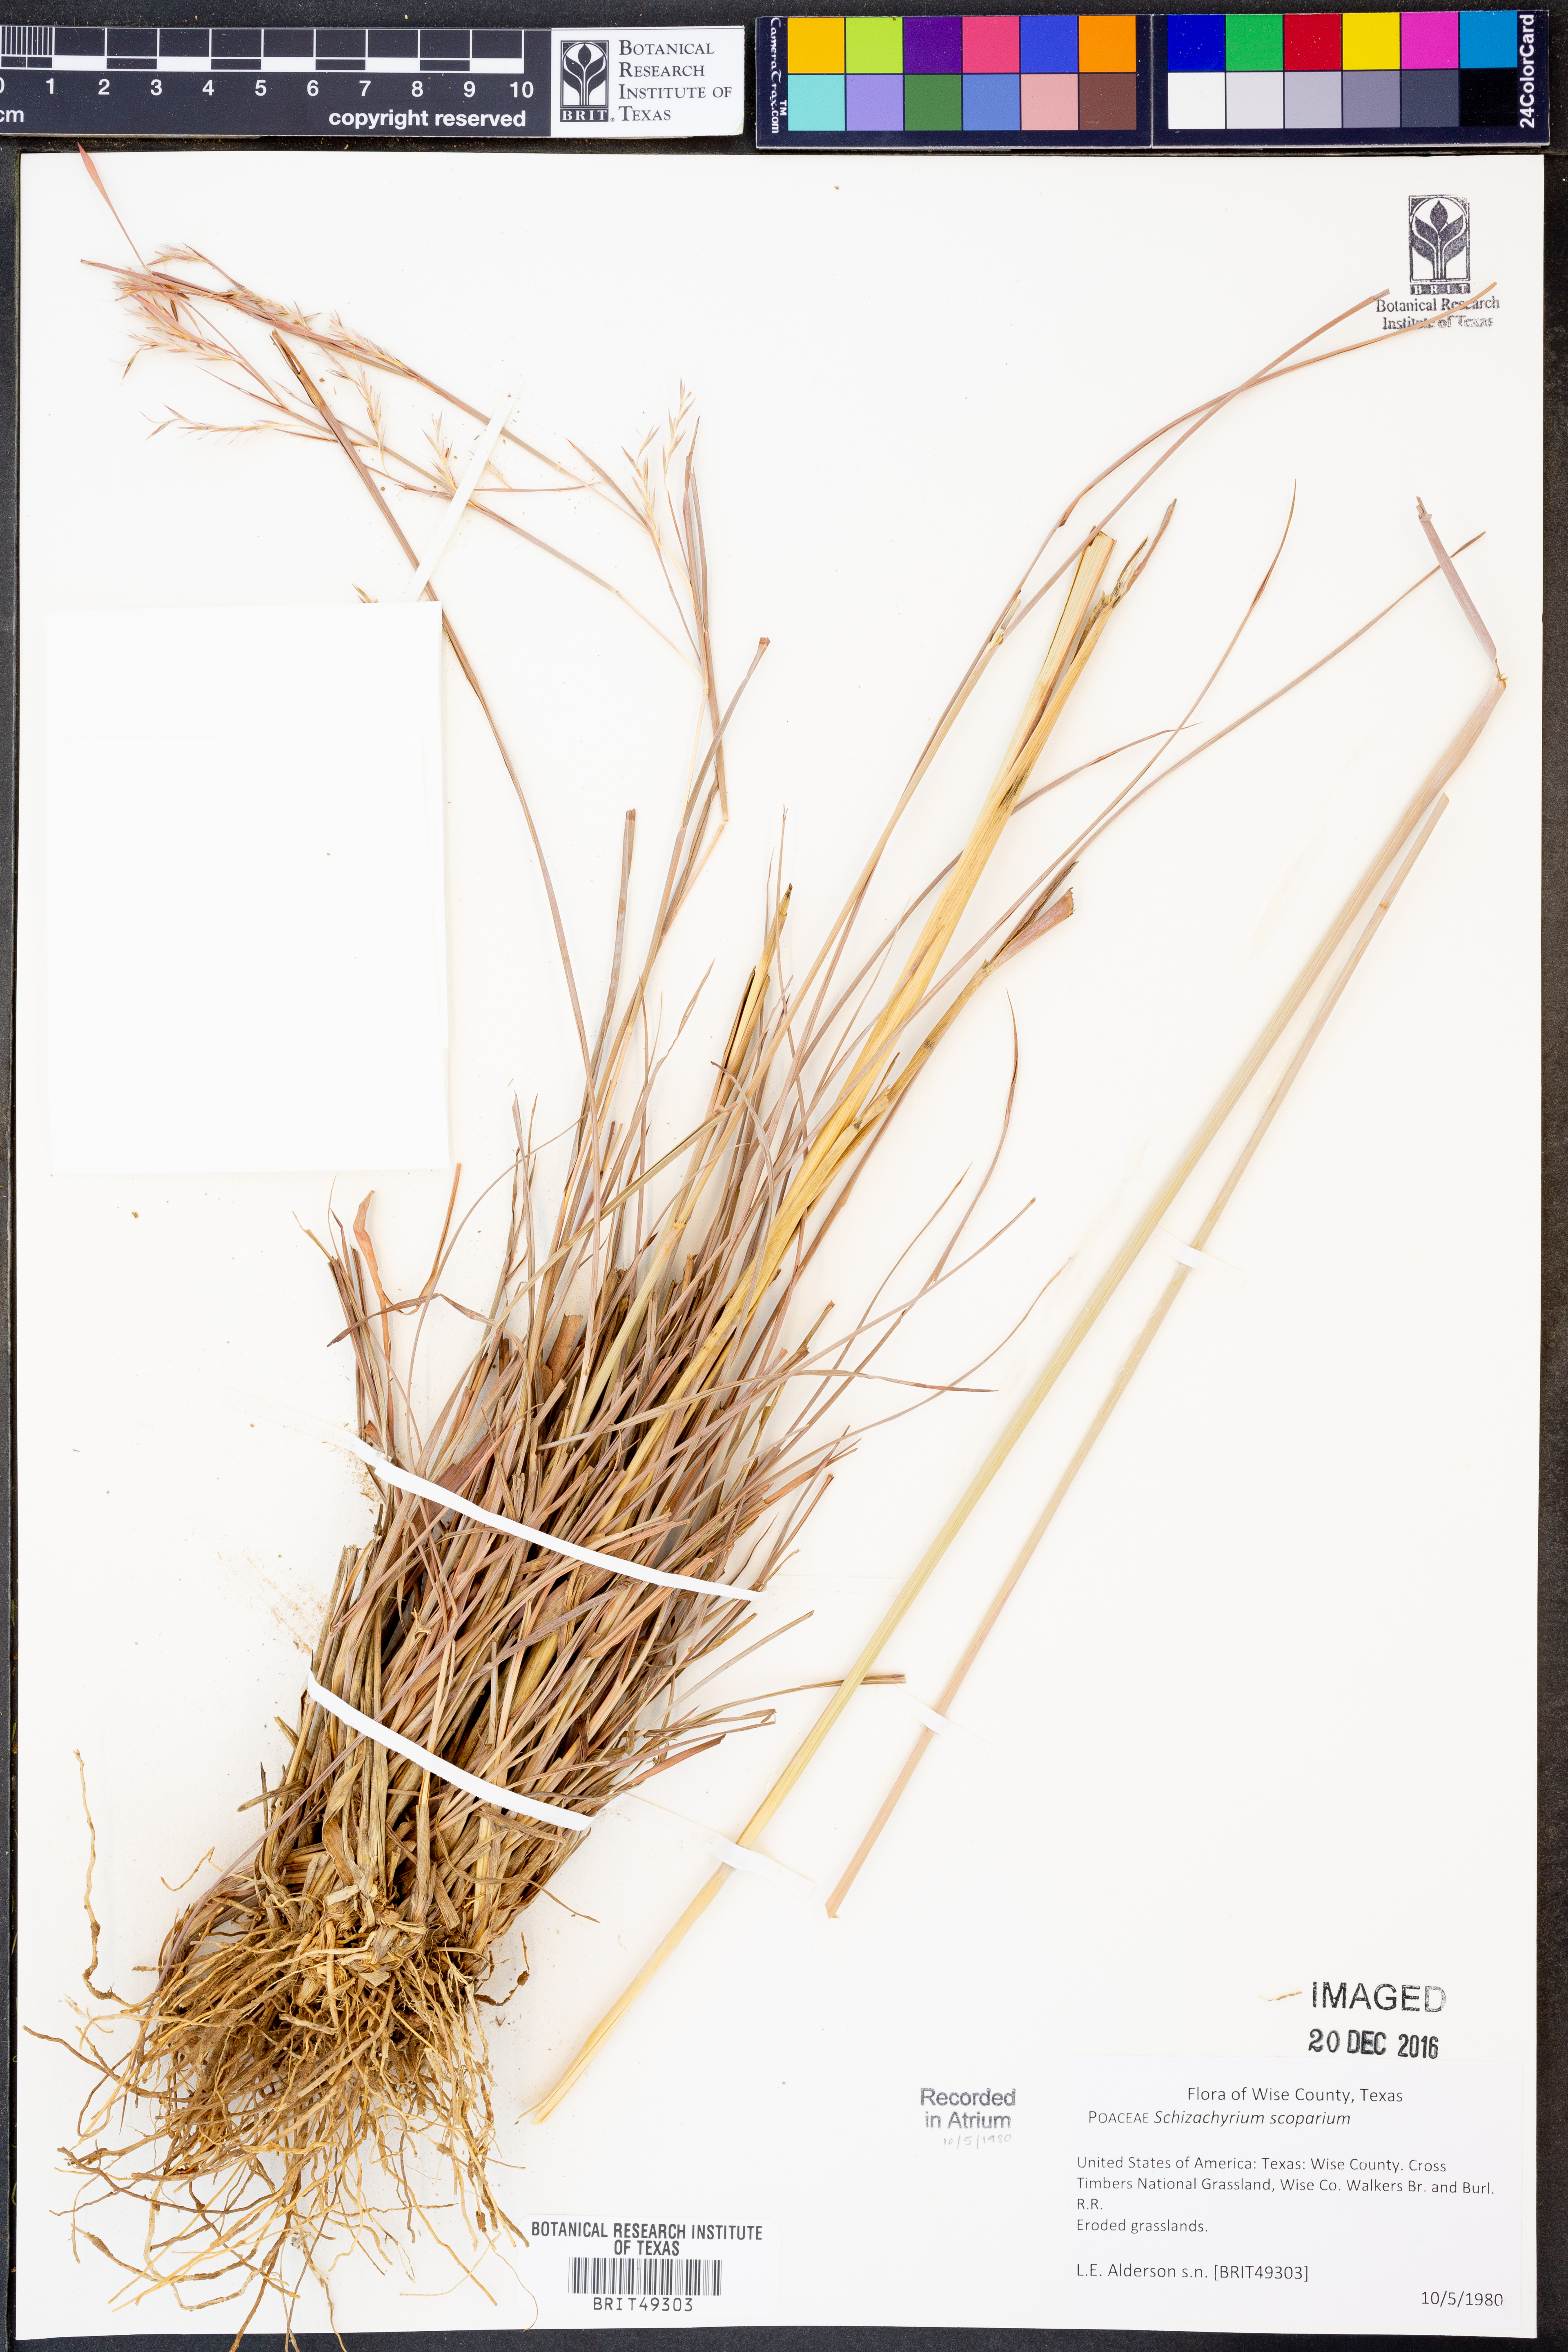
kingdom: Plantae
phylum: Tracheophyta
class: Liliopsida
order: Poales
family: Poaceae
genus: Schizachyrium
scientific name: Schizachyrium scoparium
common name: Little bluestem
